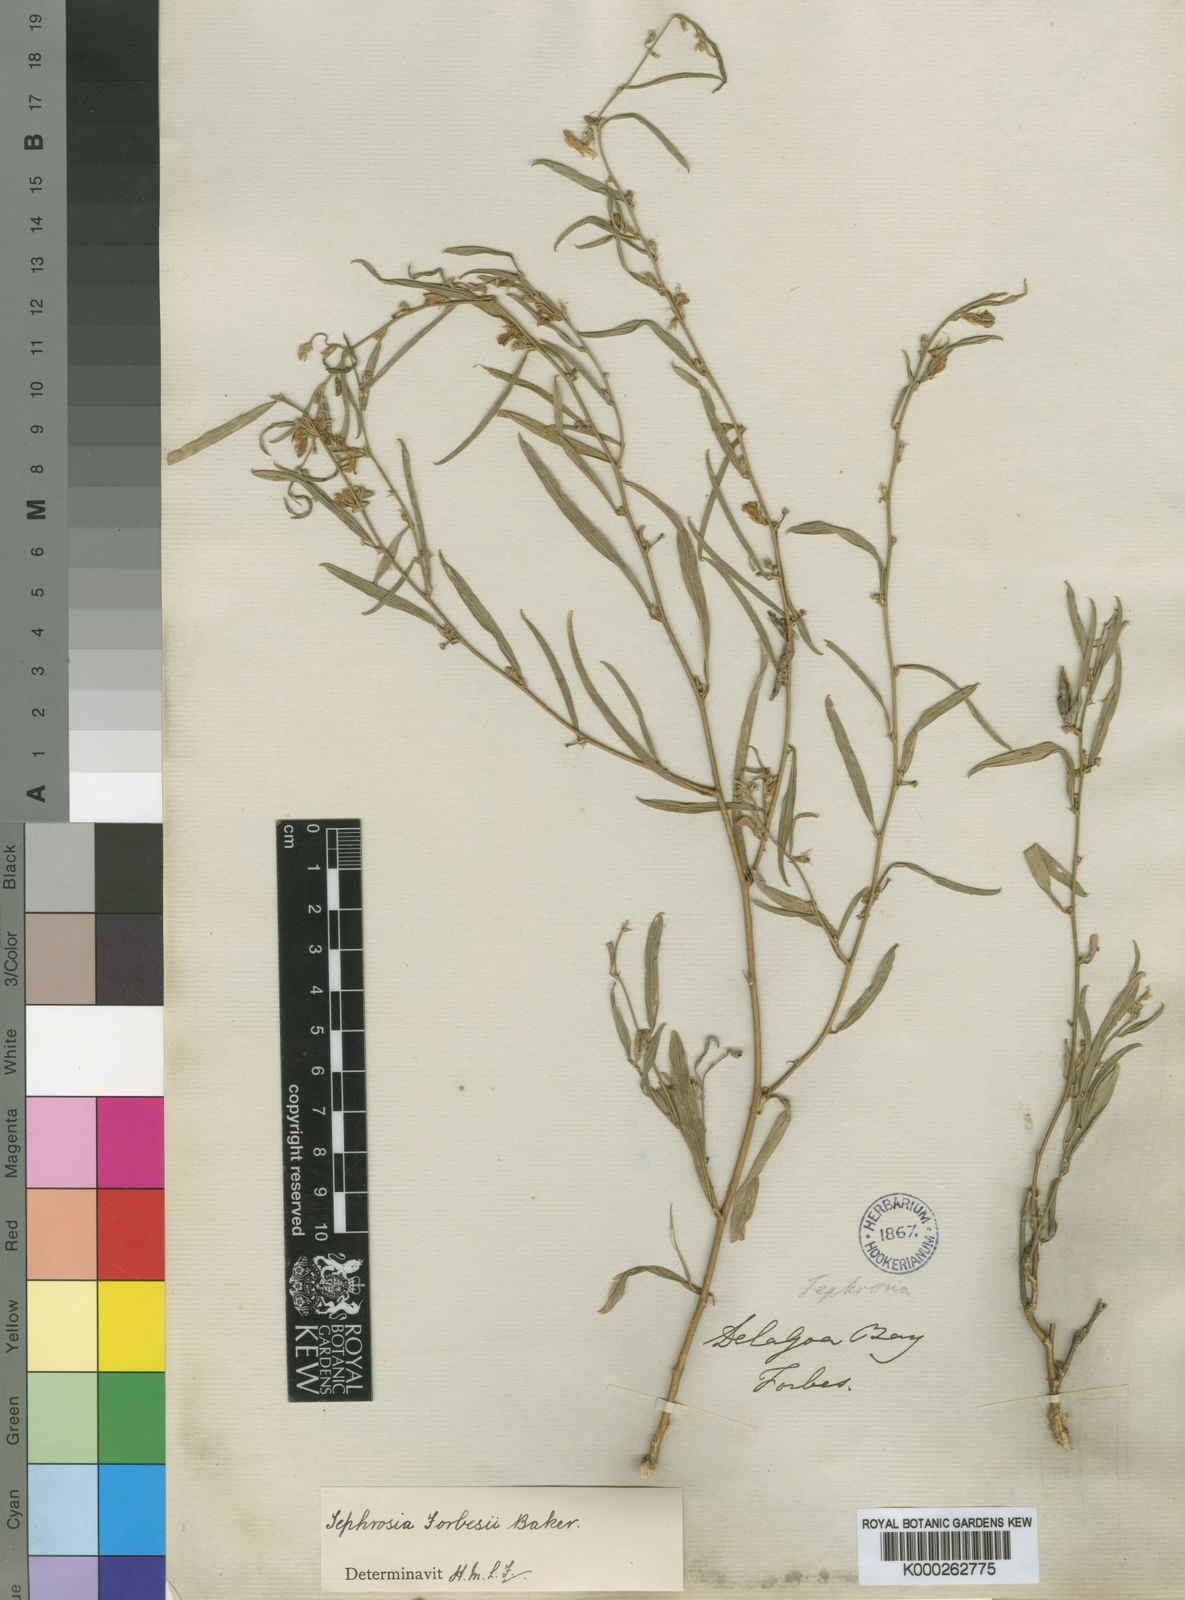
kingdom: Plantae
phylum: Tracheophyta
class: Magnoliopsida
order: Fabales
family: Fabaceae
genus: Tephrosia
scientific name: Tephrosia forbesii
